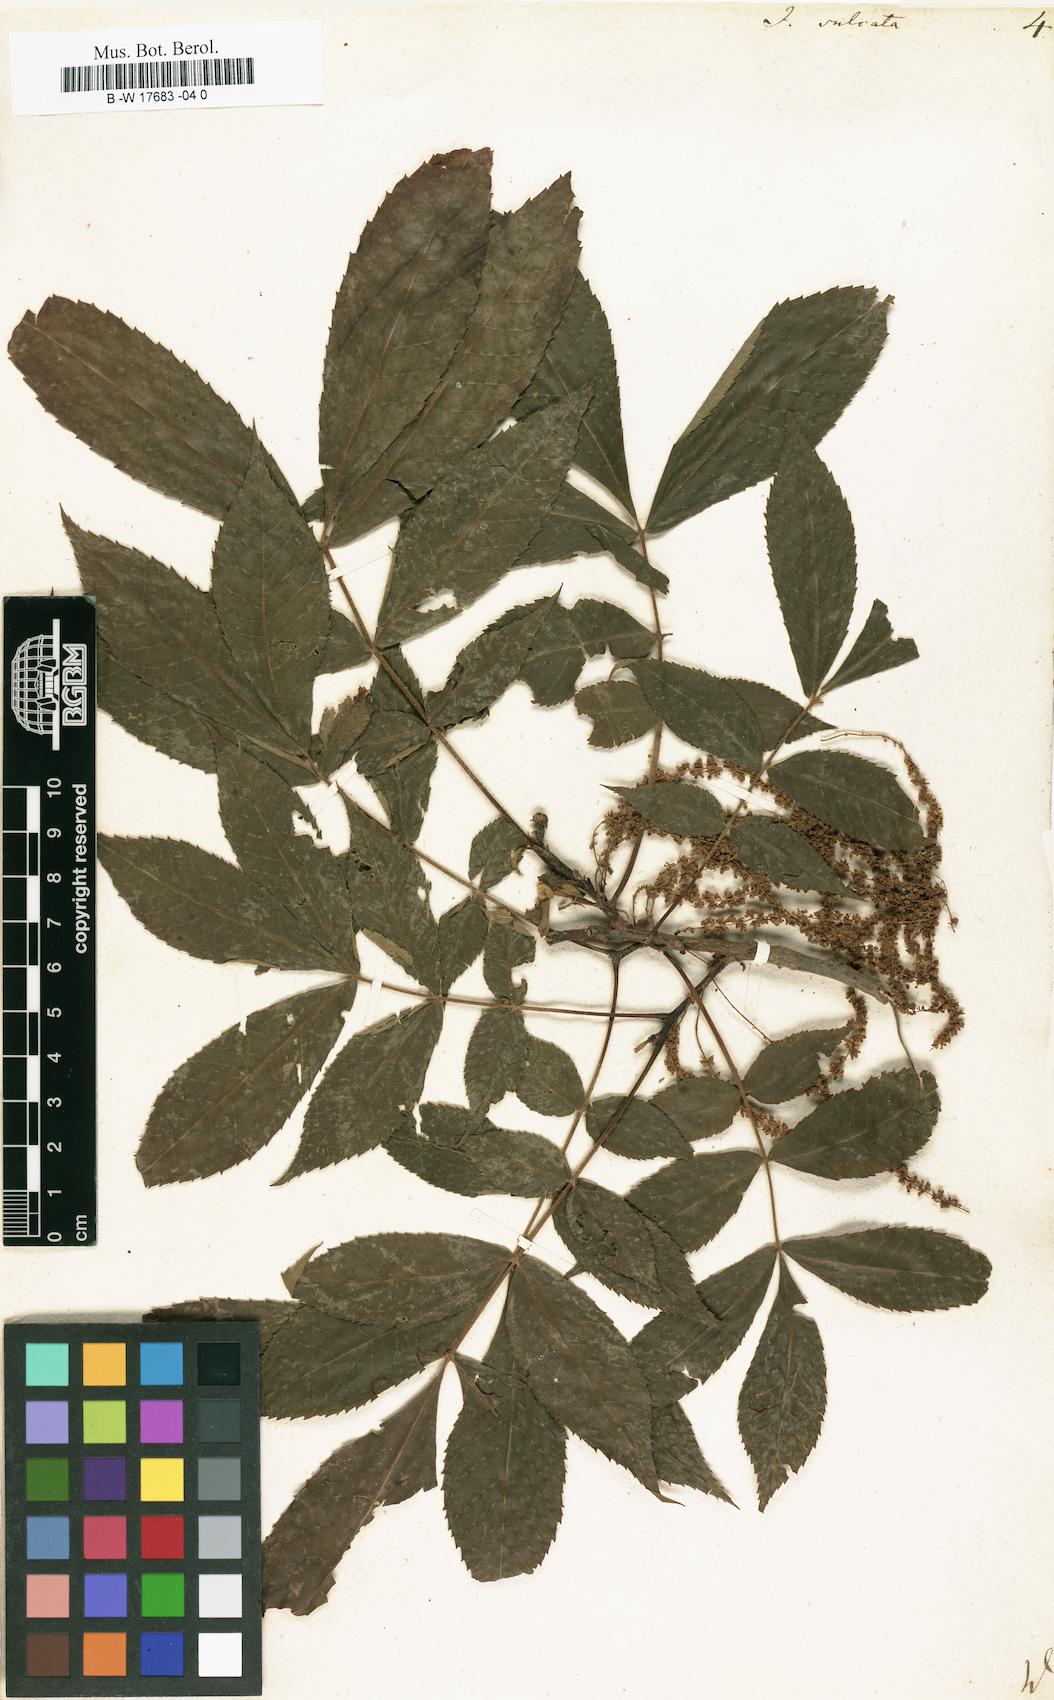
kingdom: Plantae
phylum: Tracheophyta
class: Magnoliopsida
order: Fagales
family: Juglandaceae
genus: Carya
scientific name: Carya laciniosa
